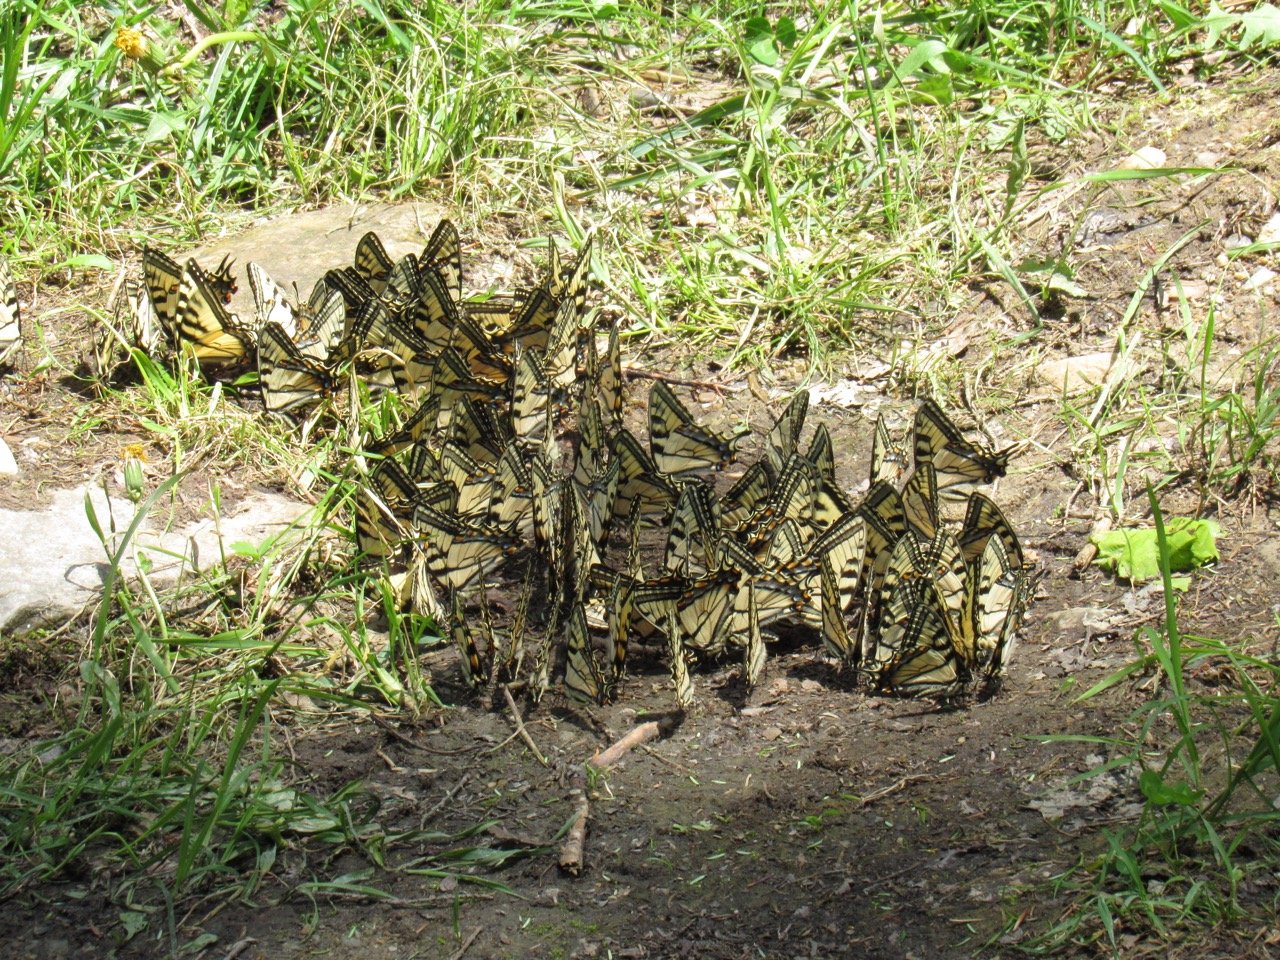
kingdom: Animalia
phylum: Arthropoda
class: Insecta
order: Lepidoptera
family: Papilionidae
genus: Pterourus
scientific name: Pterourus canadensis
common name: Canadian Tiger Swallowtail
